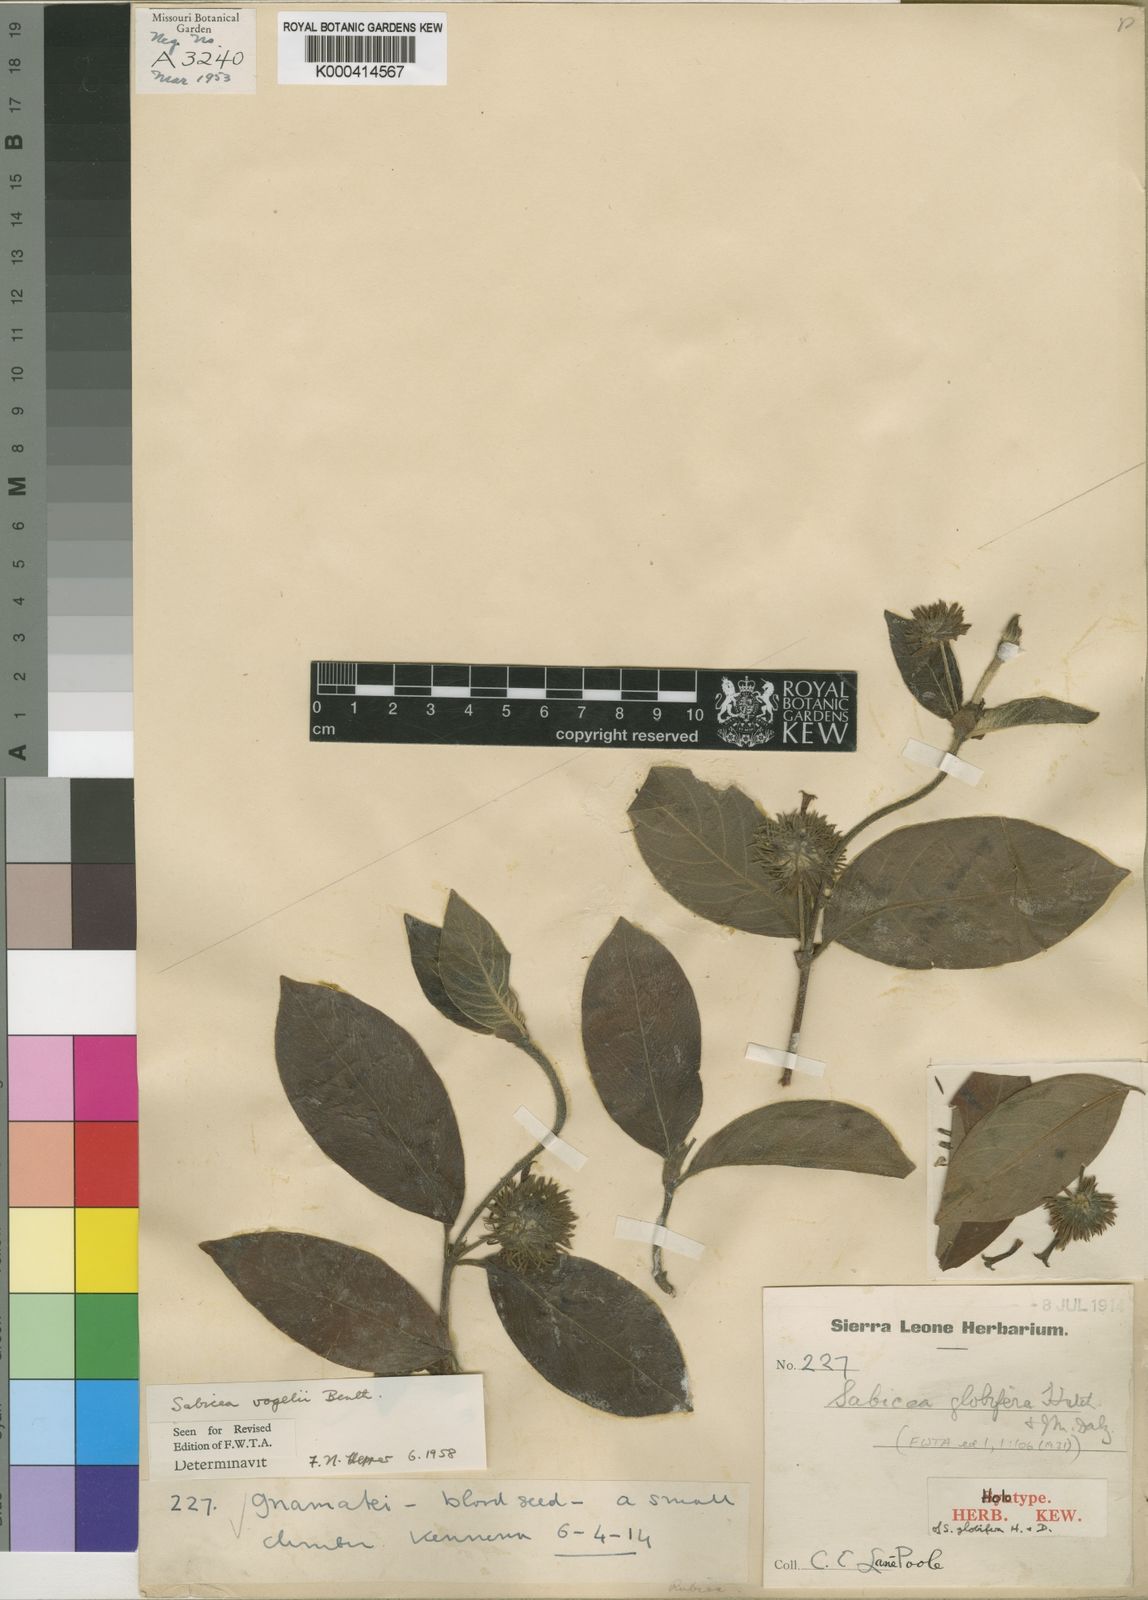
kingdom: Plantae
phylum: Tracheophyta
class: Magnoliopsida
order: Gentianales
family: Rubiaceae
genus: Sabicea
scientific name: Sabicea ferruginea
